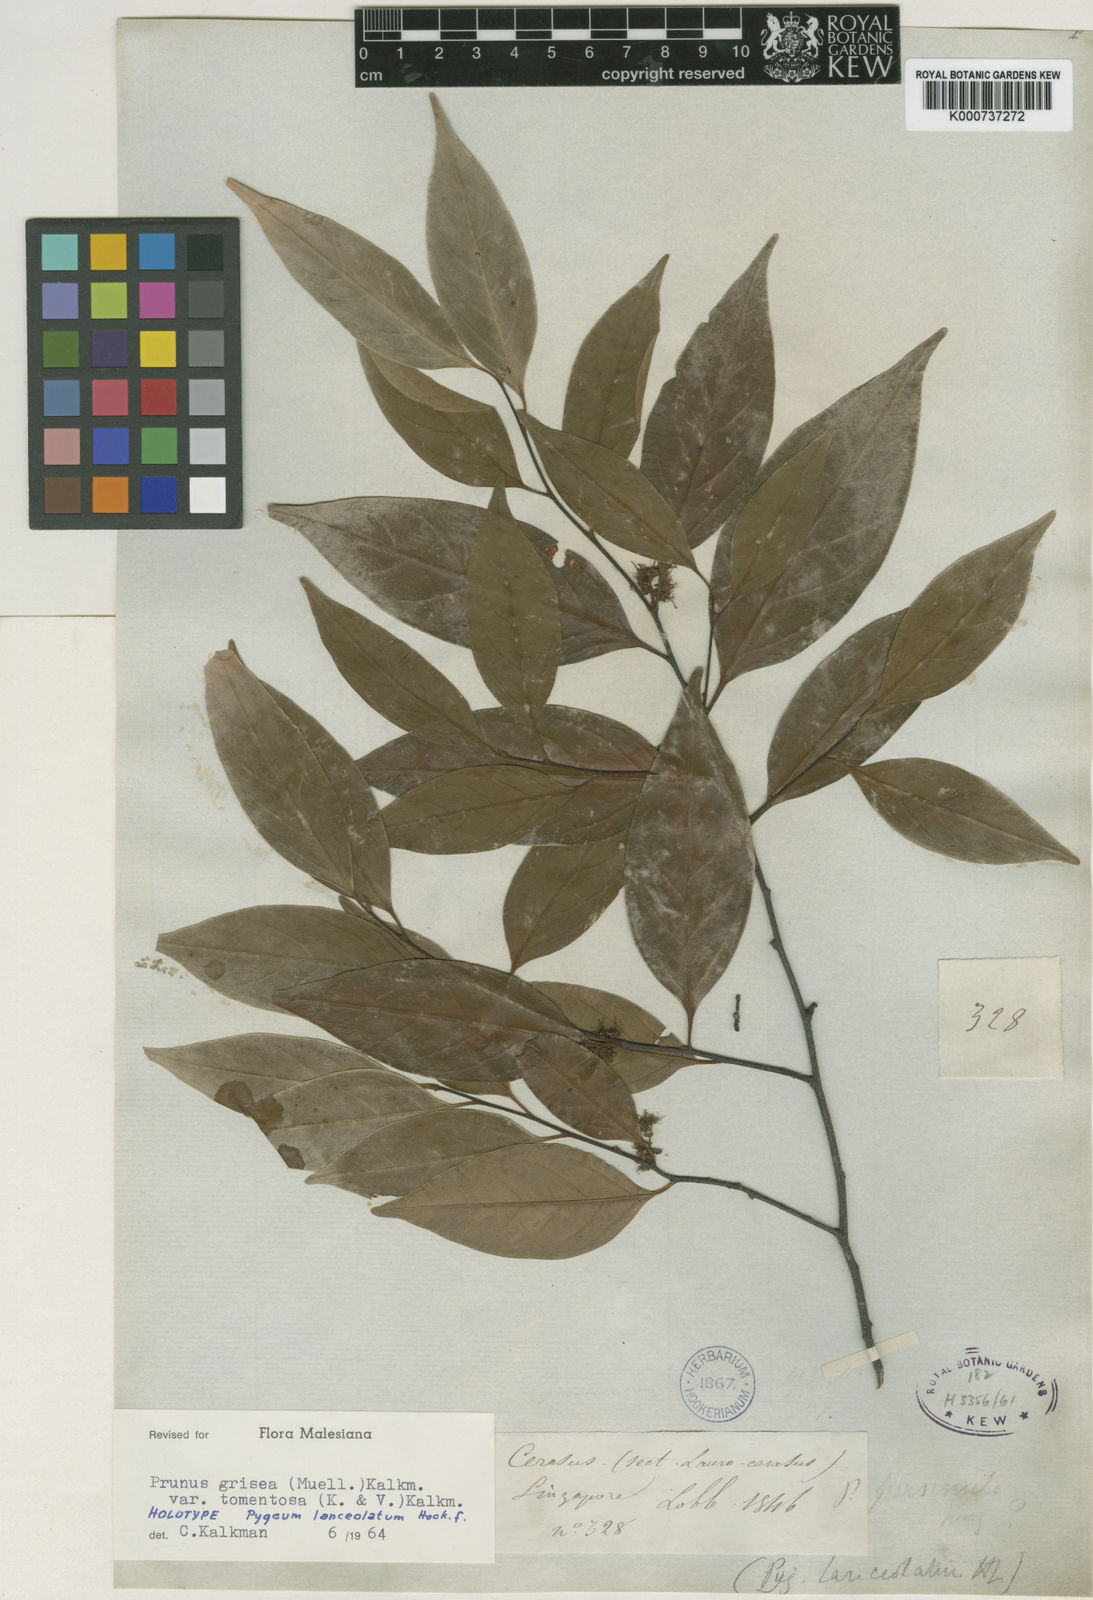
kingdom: Plantae
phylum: Tracheophyta
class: Magnoliopsida
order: Rosales
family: Rosaceae
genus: Prunus
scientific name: Prunus
